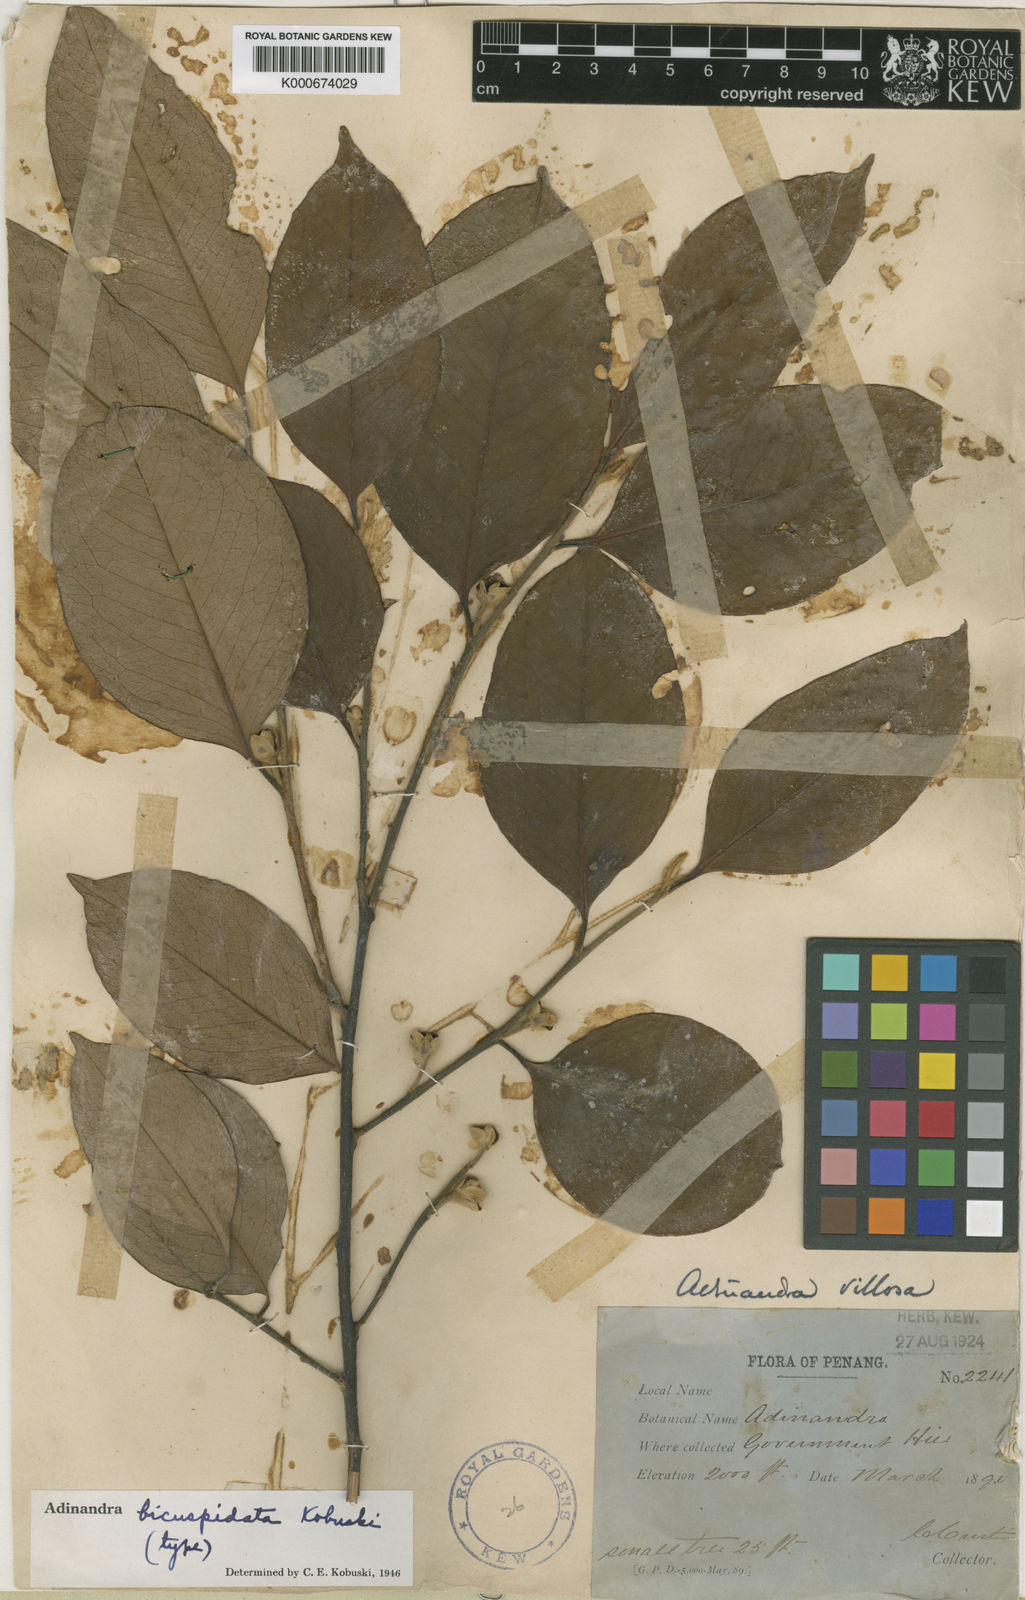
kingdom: Plantae
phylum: Tracheophyta
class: Magnoliopsida
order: Ericales
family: Pentaphylacaceae
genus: Adinandra
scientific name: Adinandra bicuspidata
